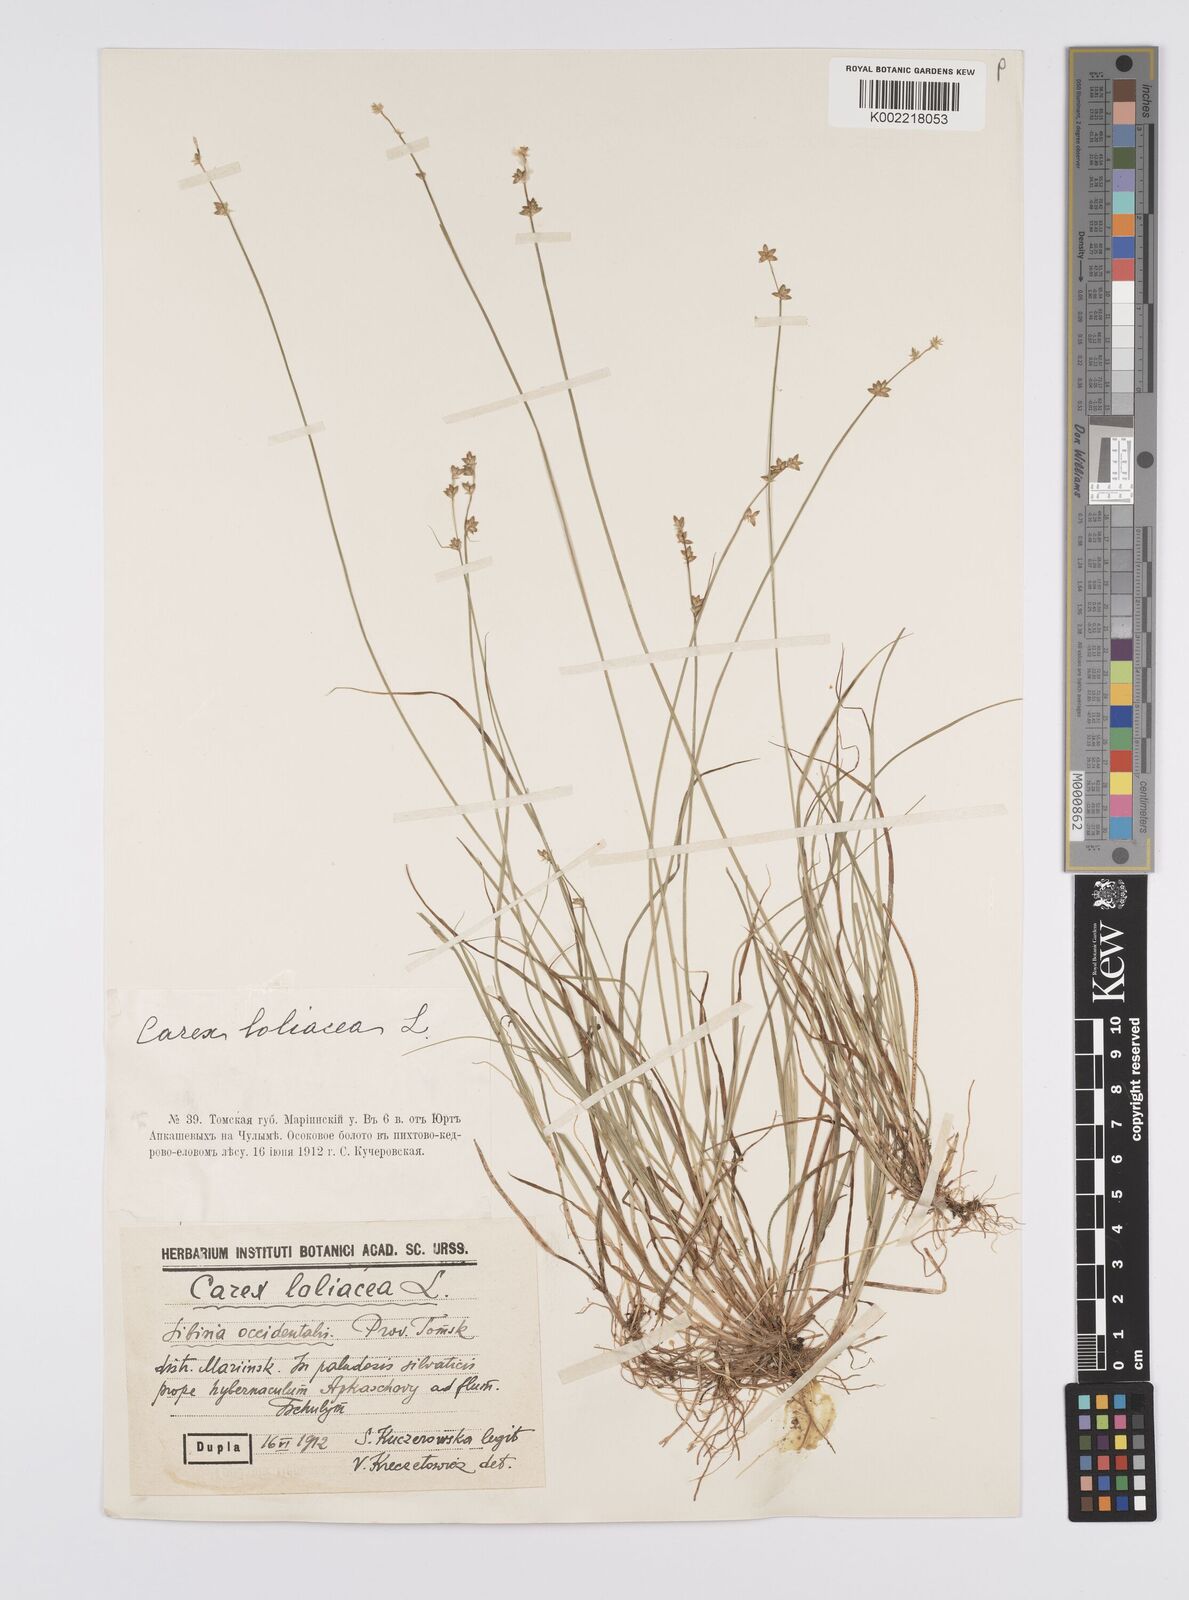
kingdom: Plantae
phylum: Tracheophyta
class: Liliopsida
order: Poales
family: Cyperaceae
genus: Carex
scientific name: Carex loliacea
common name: Ryegrass sedge
